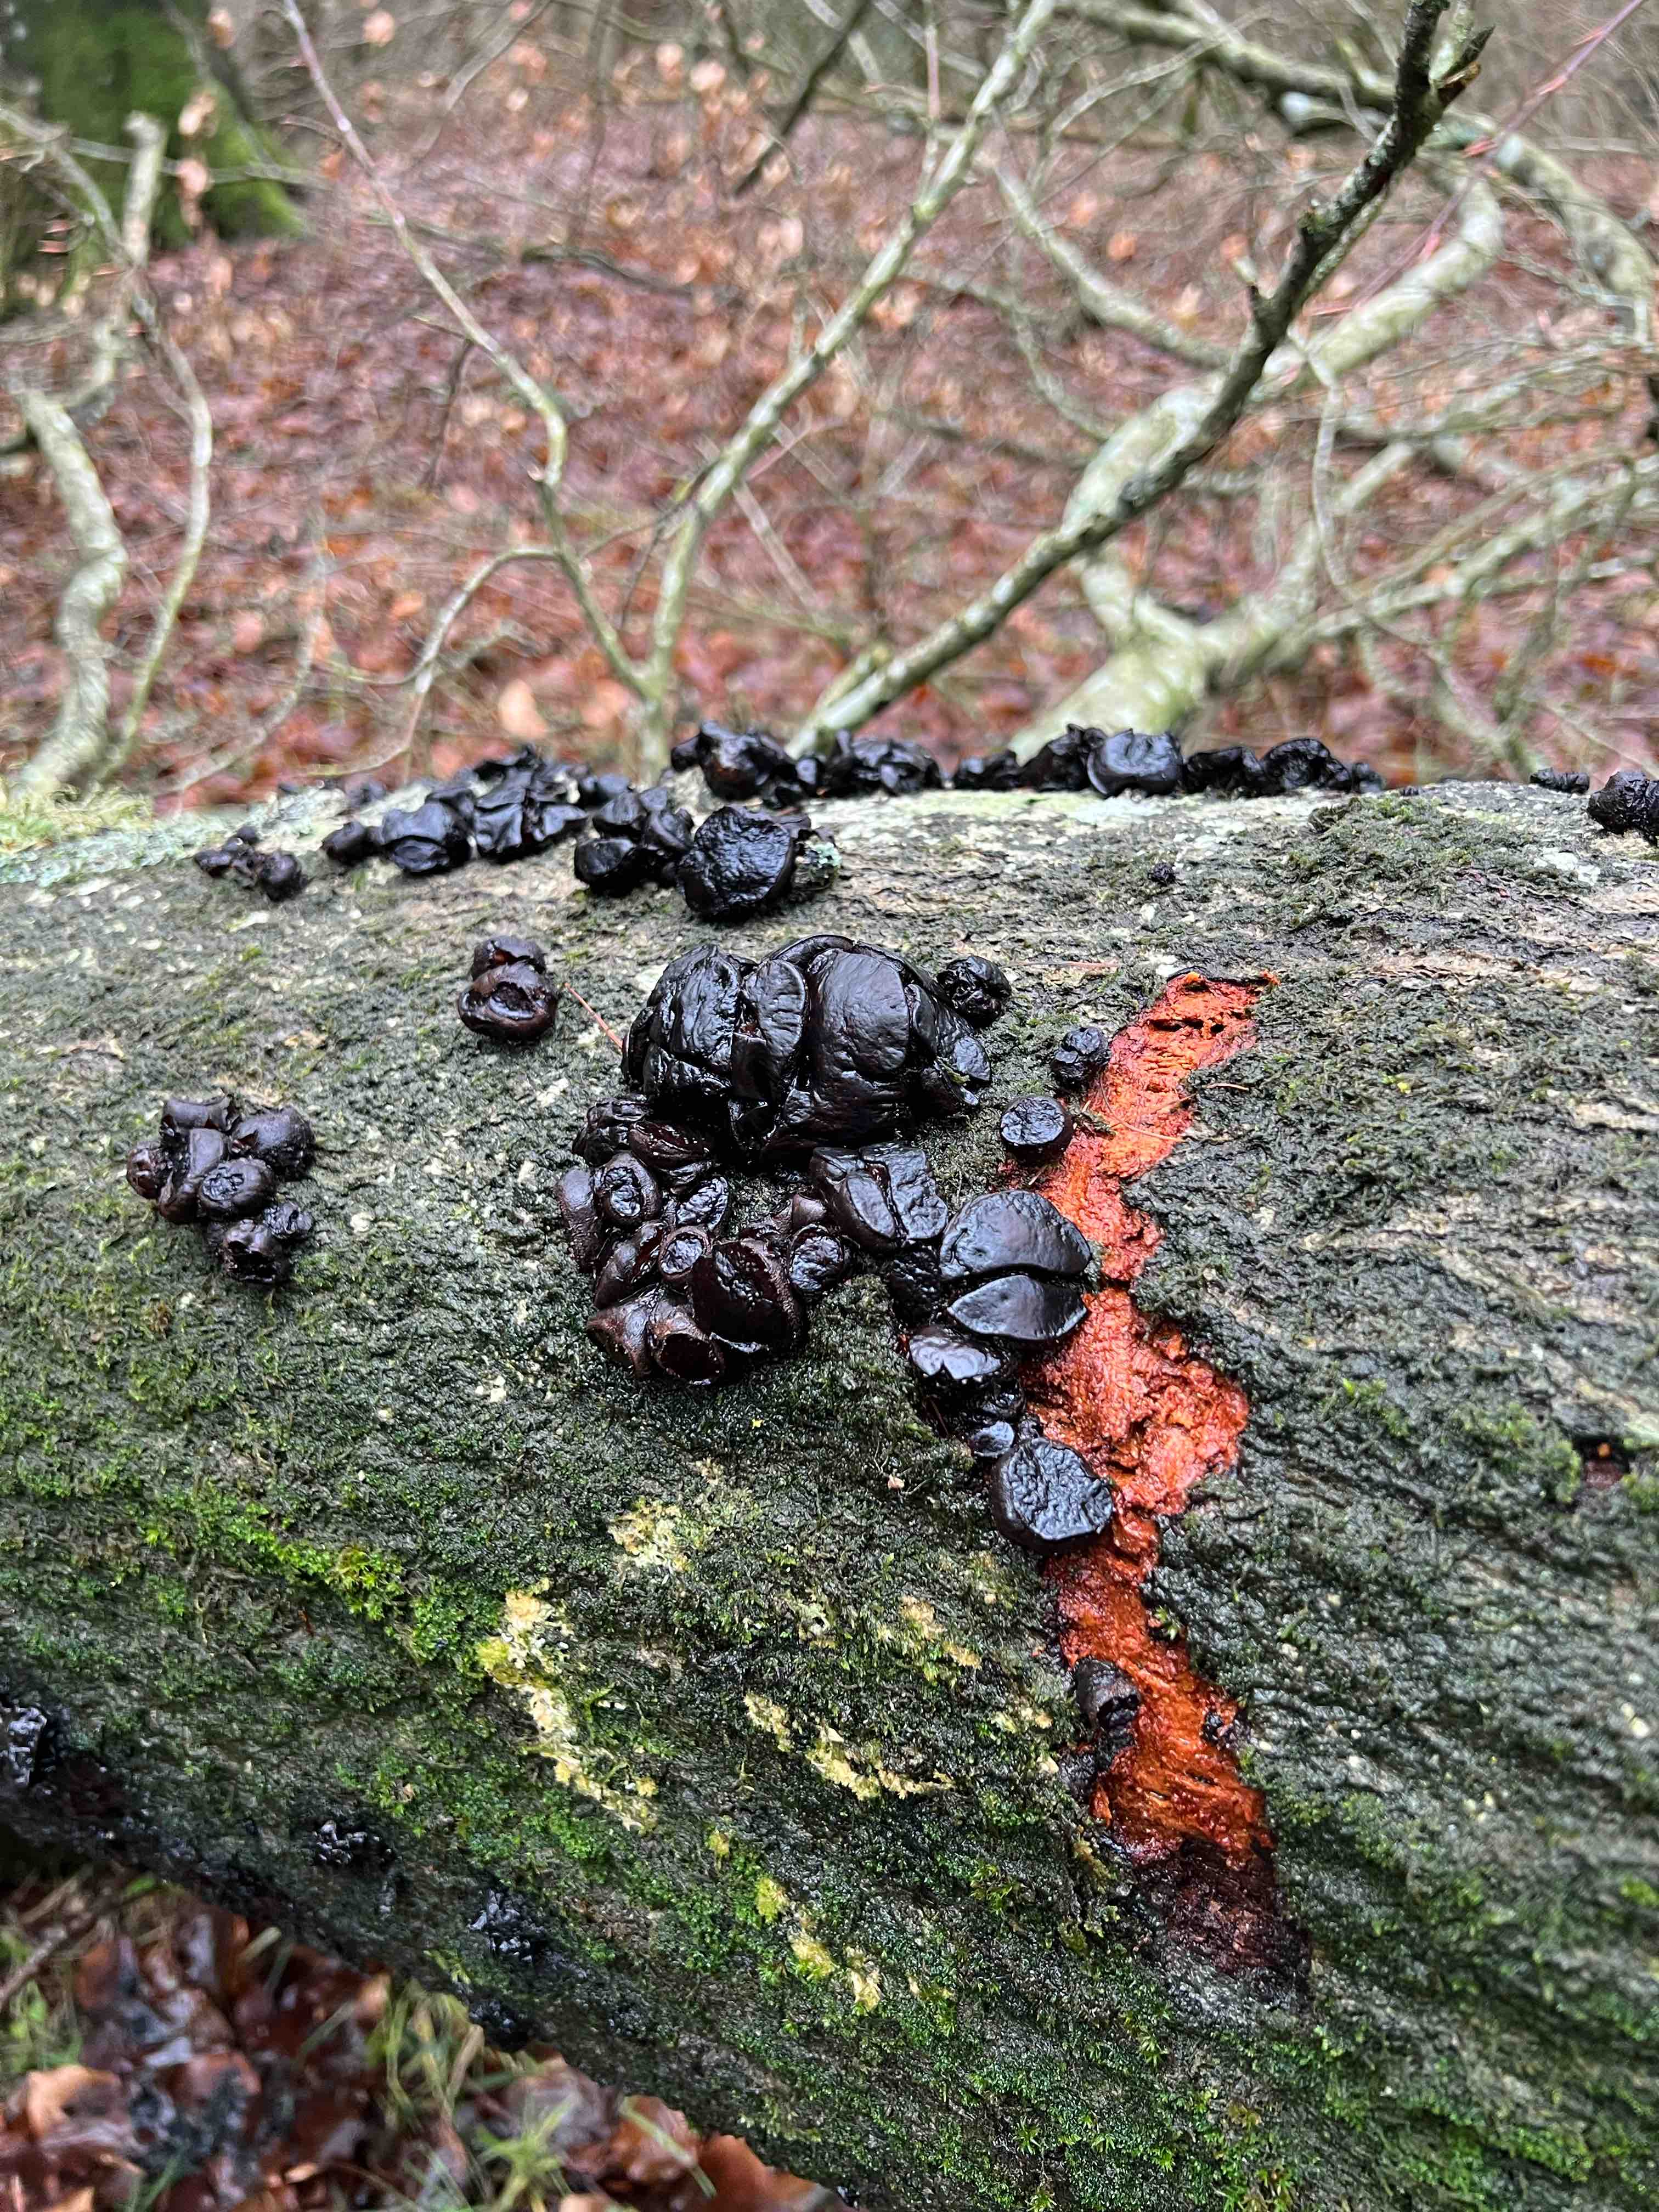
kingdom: Fungi
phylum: Ascomycota
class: Leotiomycetes
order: Phacidiales
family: Phacidiaceae
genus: Bulgaria
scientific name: Bulgaria inquinans
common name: afsmittende topsvamp
